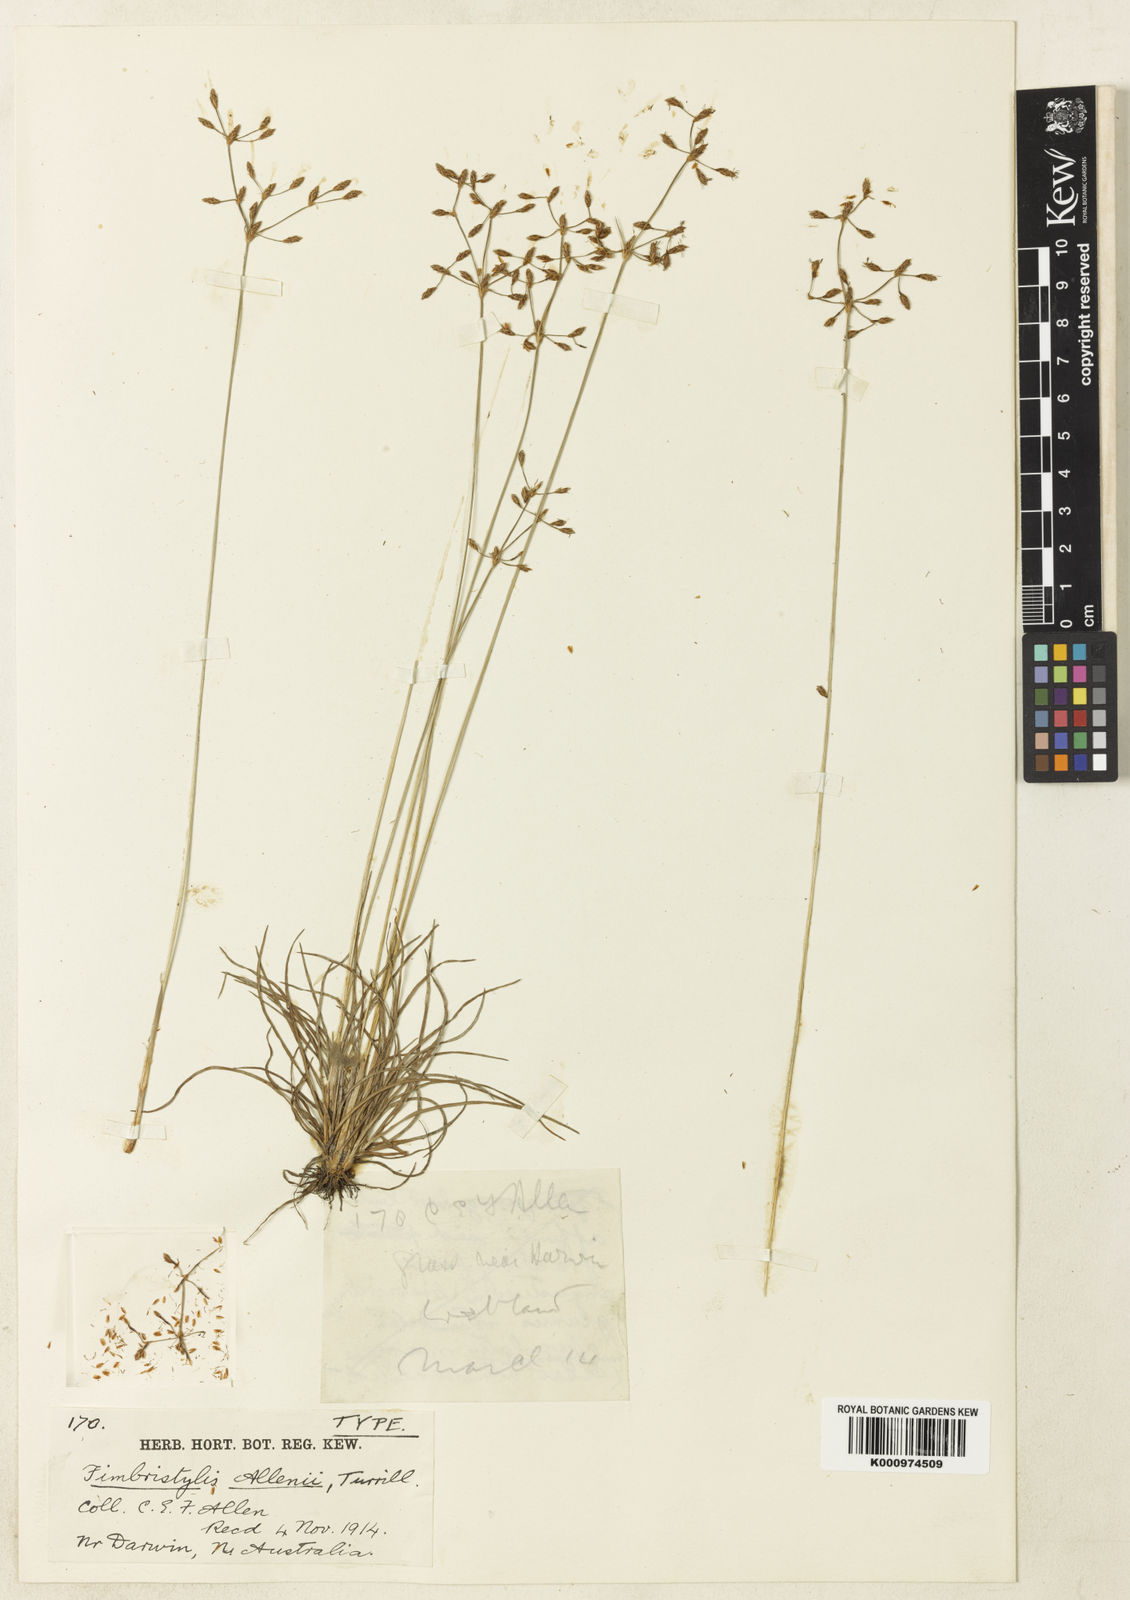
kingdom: Plantae
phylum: Tracheophyta
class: Liliopsida
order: Poales
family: Cyperaceae
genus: Fimbristylis
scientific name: Fimbristylis furva
